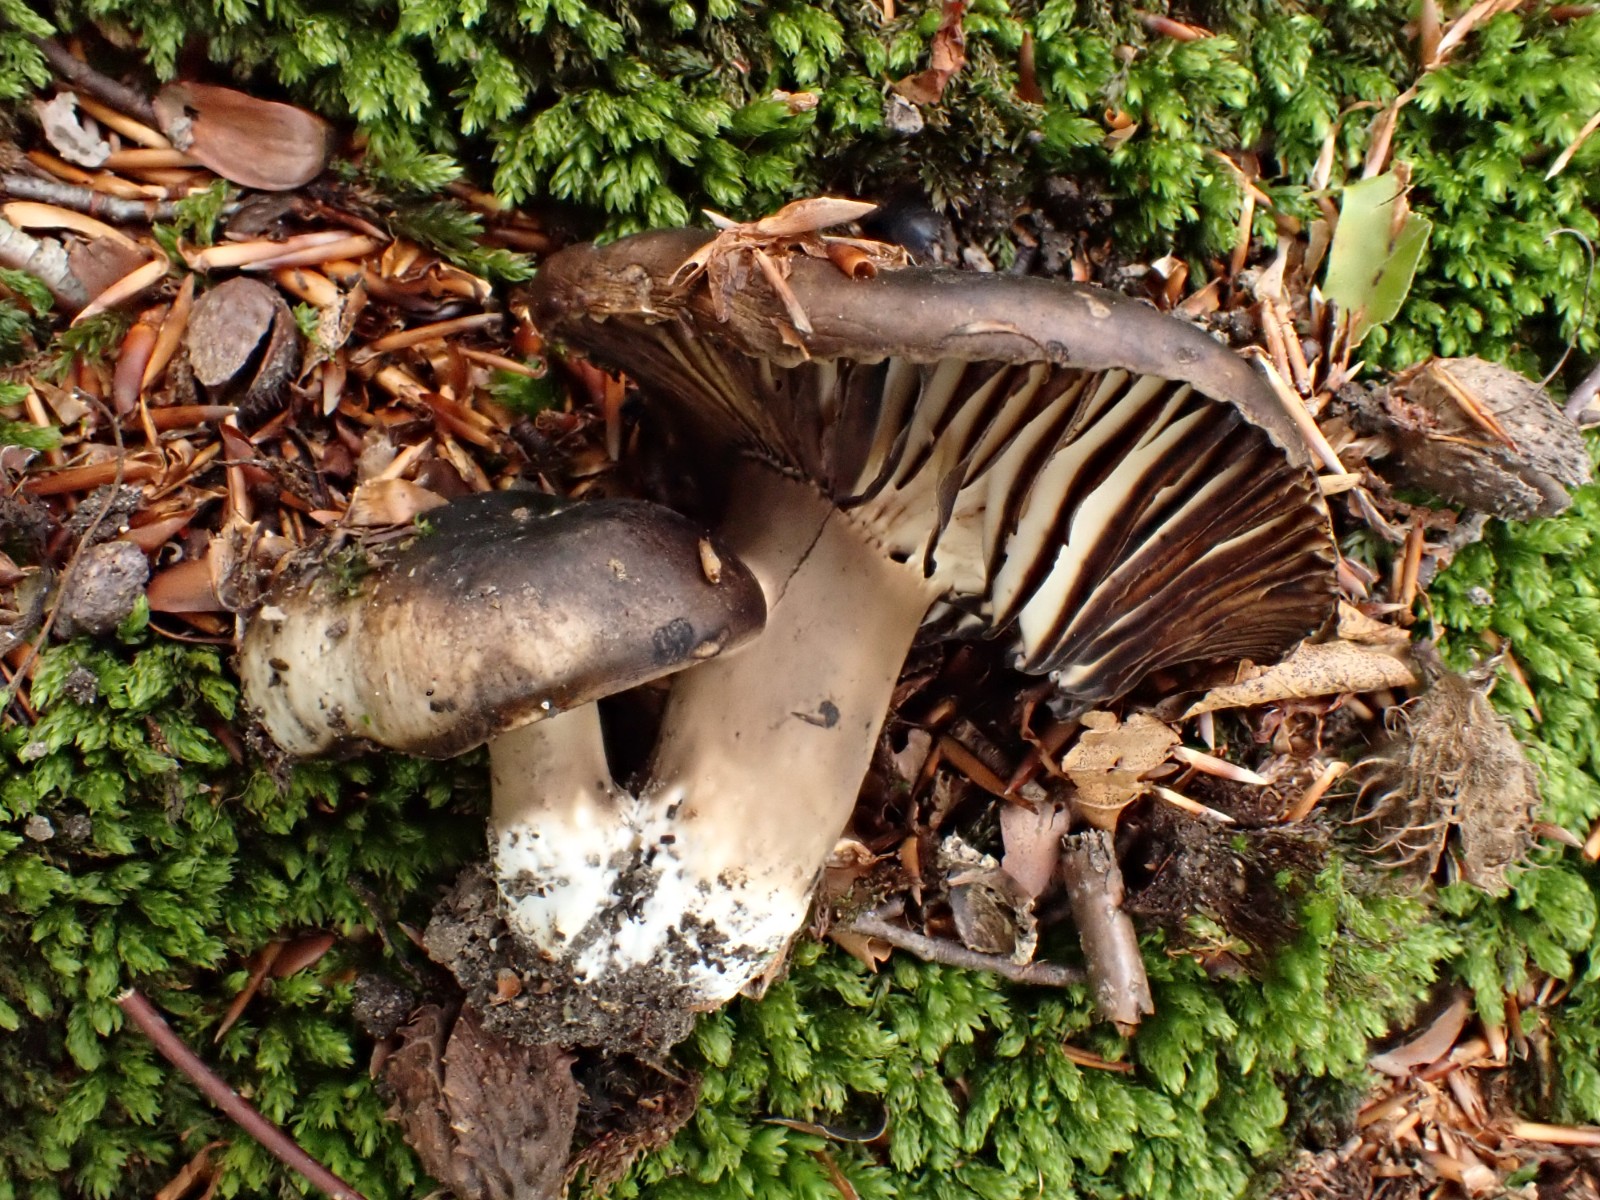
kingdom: Fungi
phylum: Basidiomycota
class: Agaricomycetes
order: Russulales
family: Russulaceae
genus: Russula
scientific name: Russula adusta
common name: sværtende skørhat
